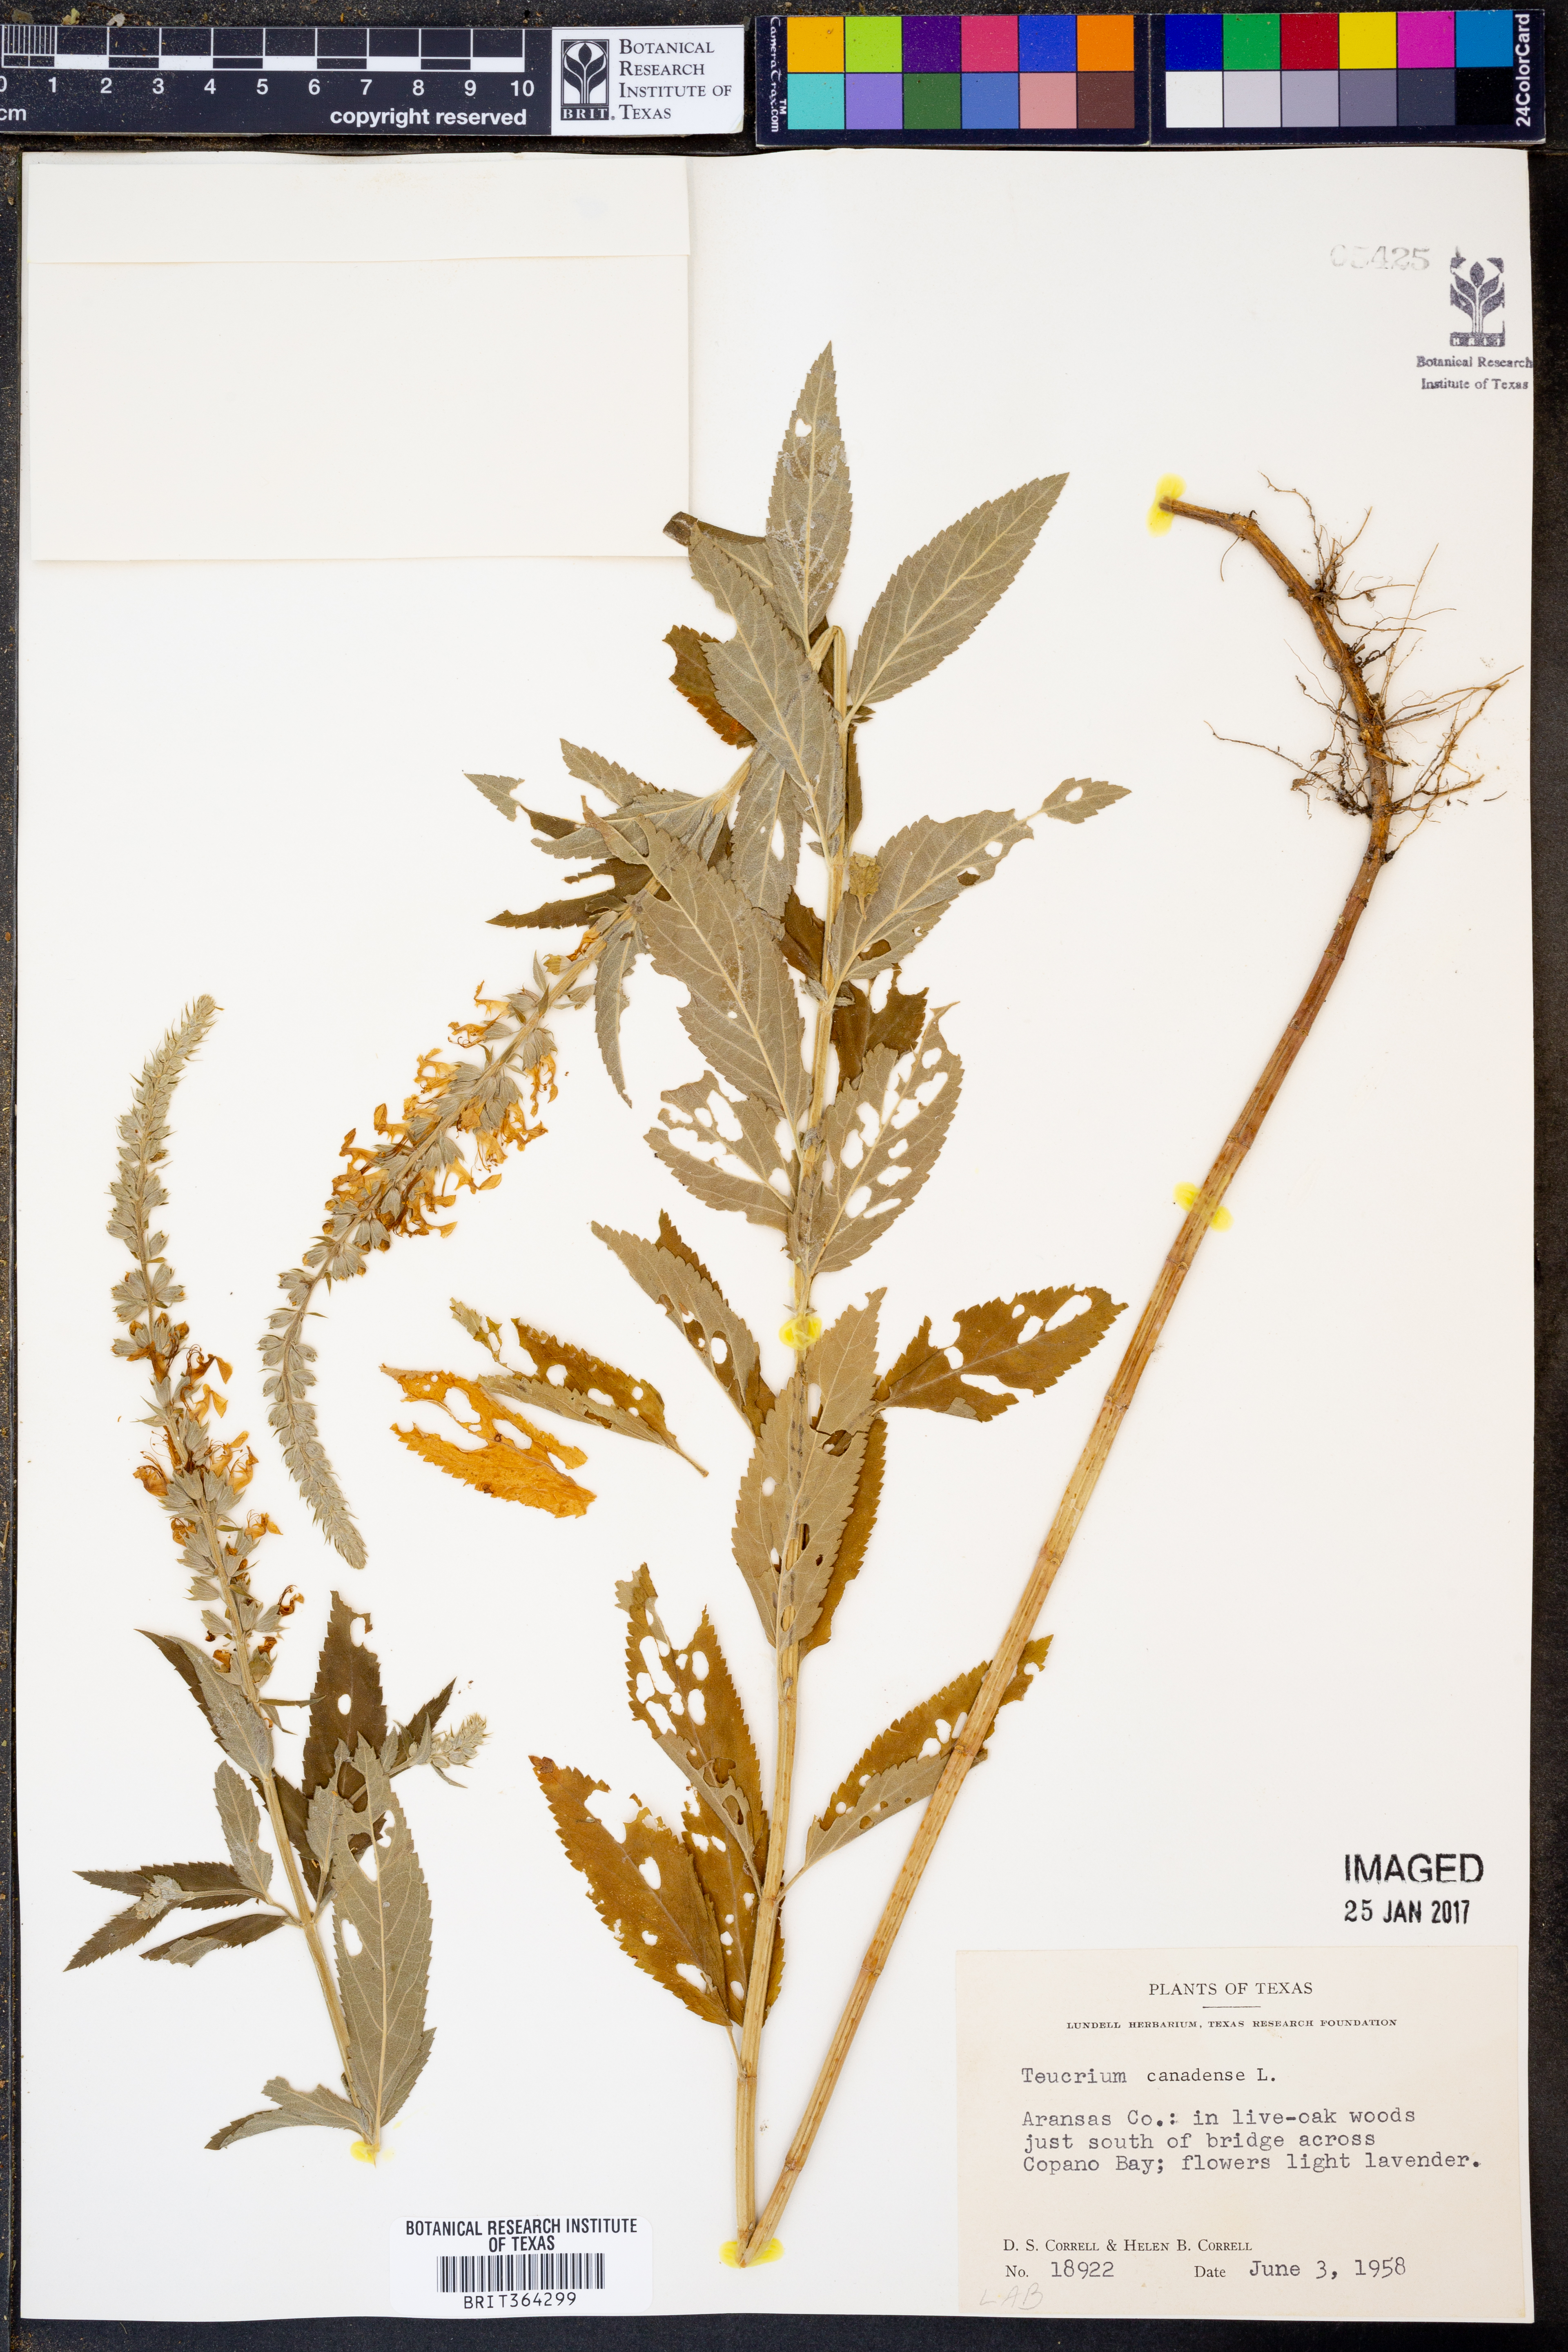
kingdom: Plantae
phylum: Tracheophyta
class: Magnoliopsida
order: Lamiales
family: Lamiaceae
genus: Teucrium
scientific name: Teucrium canadense
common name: American germander
